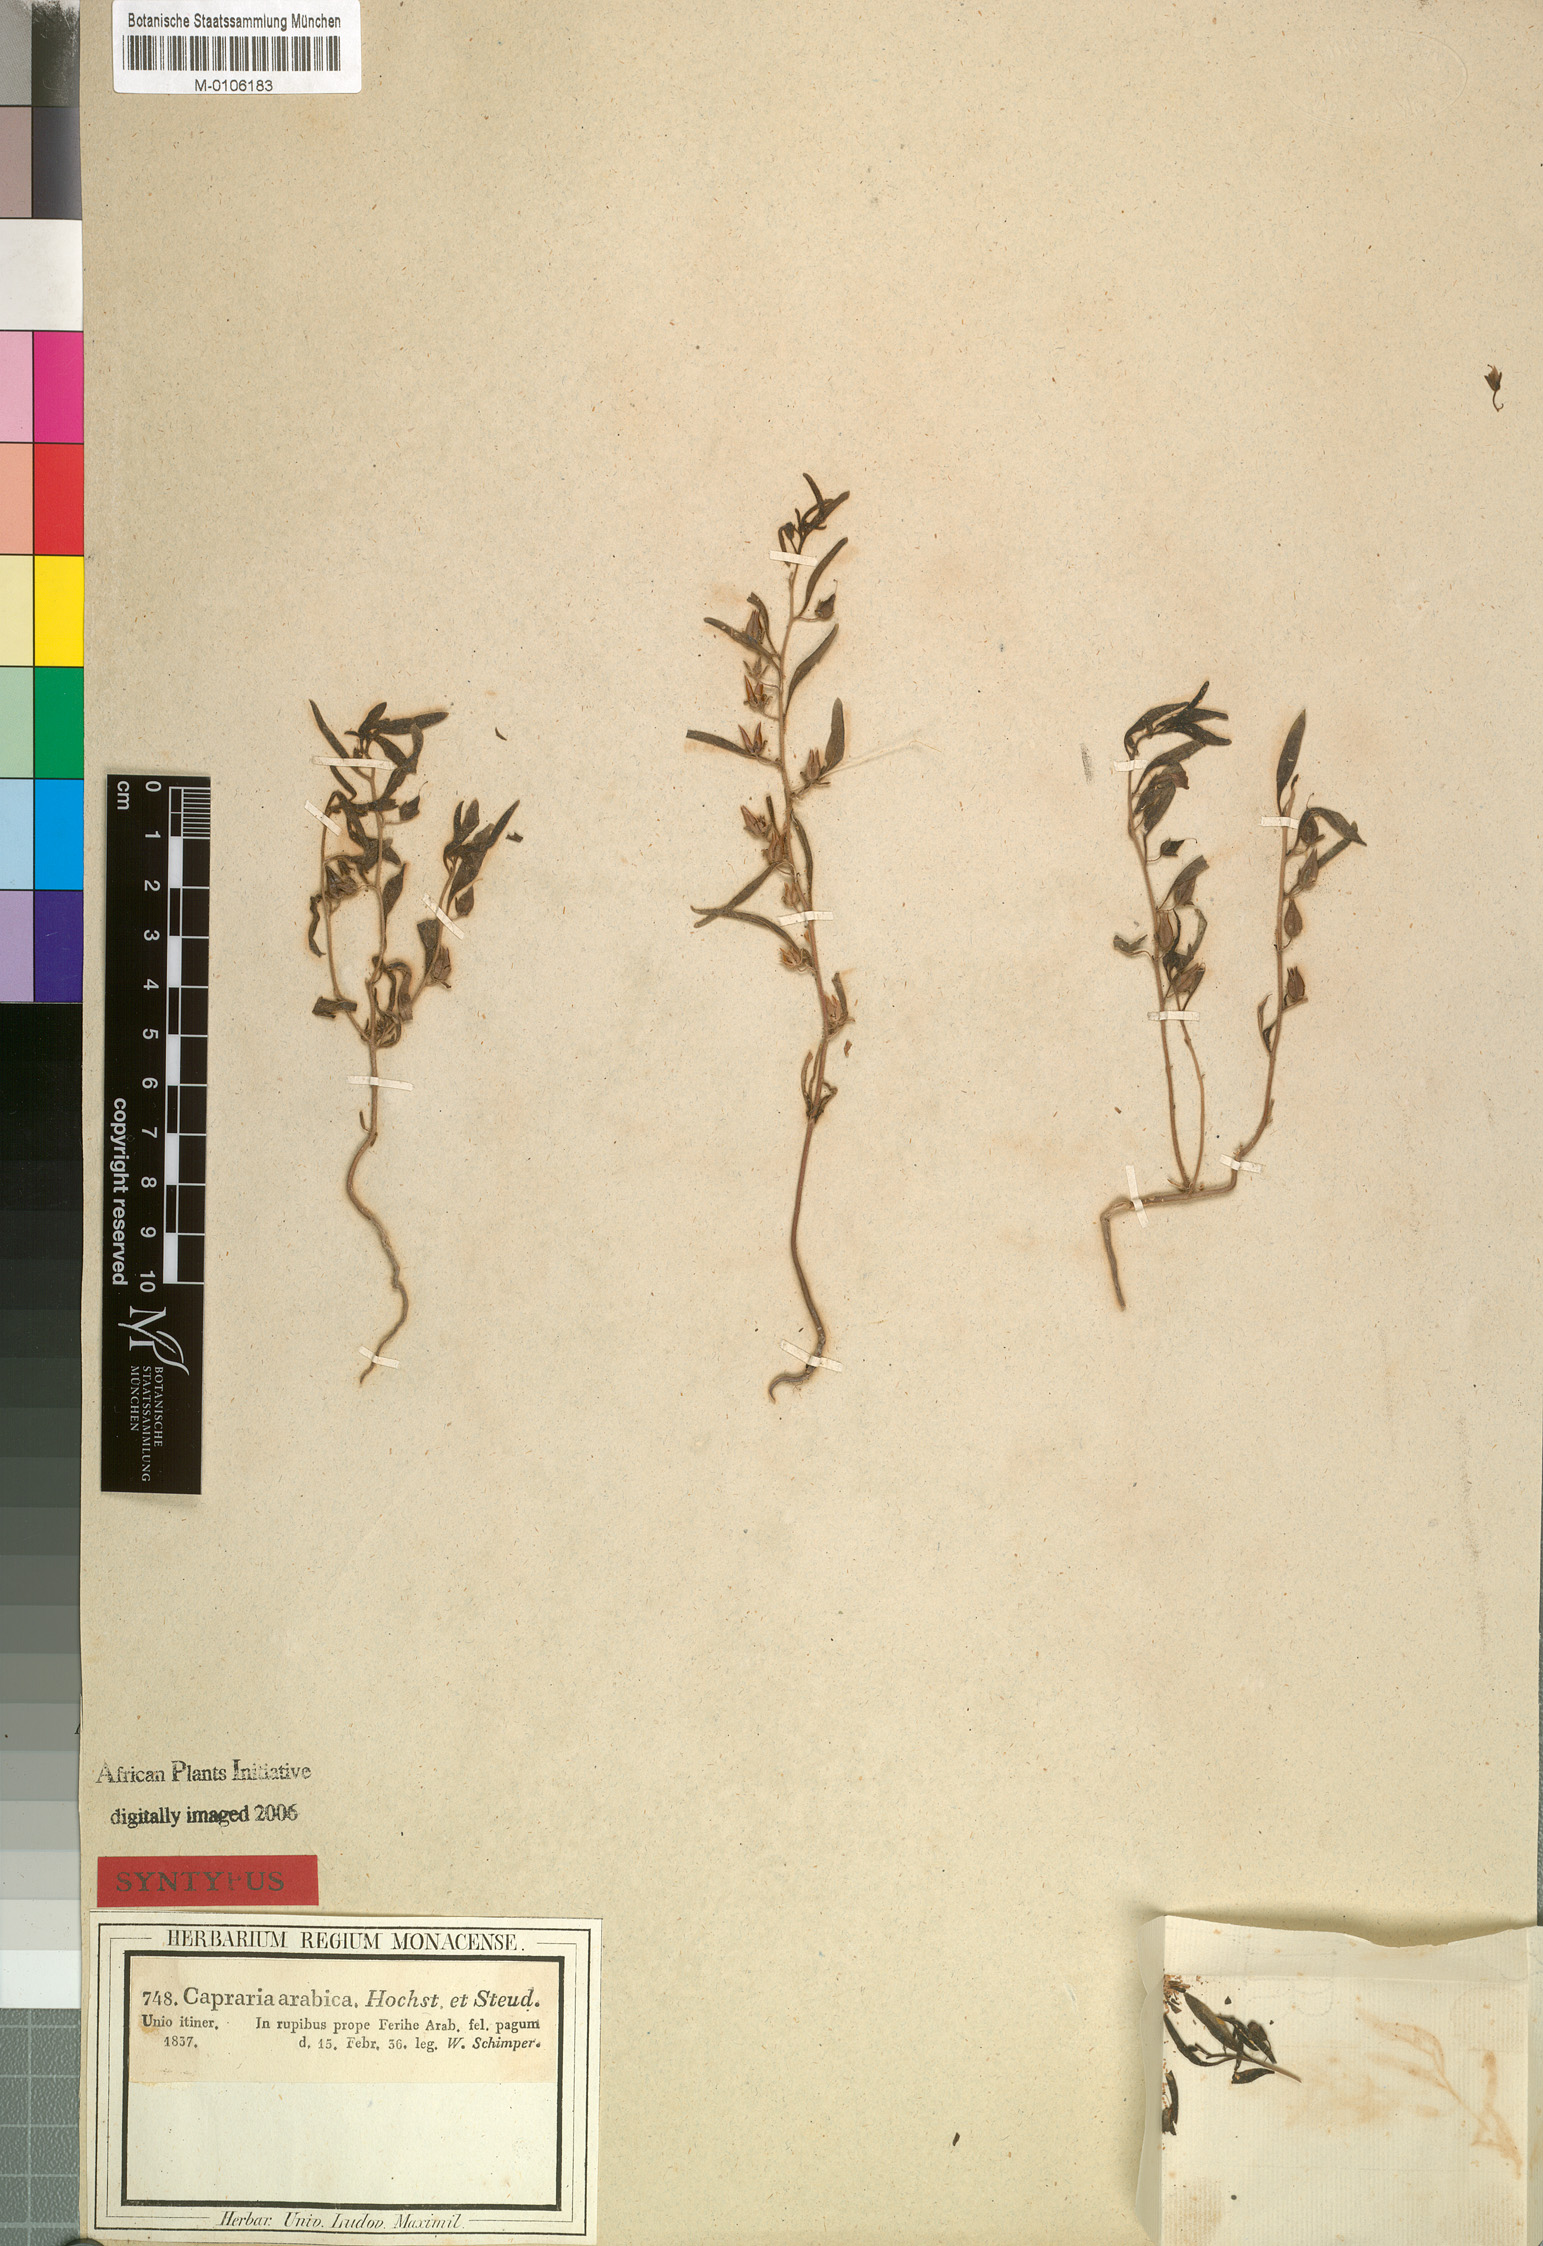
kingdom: Plantae
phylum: Tracheophyta
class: Magnoliopsida
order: Lamiales
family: Scrophulariaceae
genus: Anticharis
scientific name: Anticharis arabica
